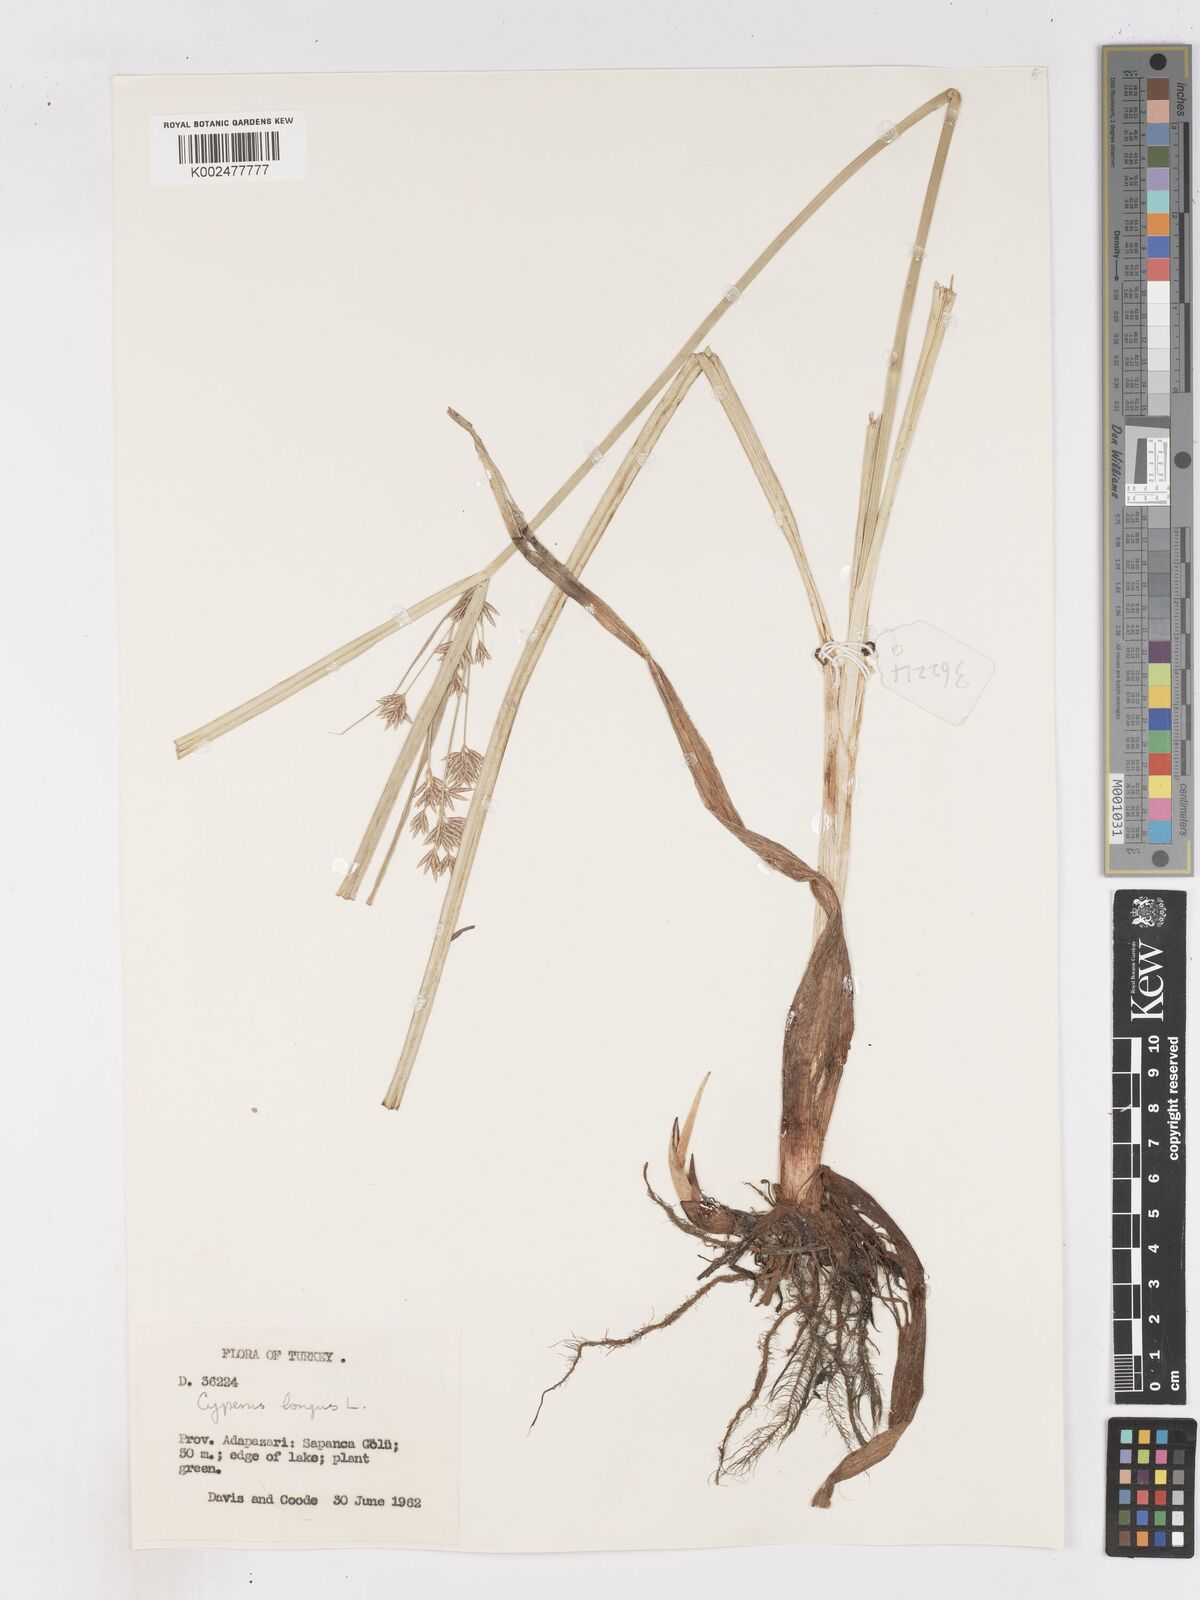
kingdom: Plantae
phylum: Tracheophyta
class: Liliopsida
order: Poales
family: Cyperaceae
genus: Cyperus
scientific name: Cyperus longus
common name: Galingale
